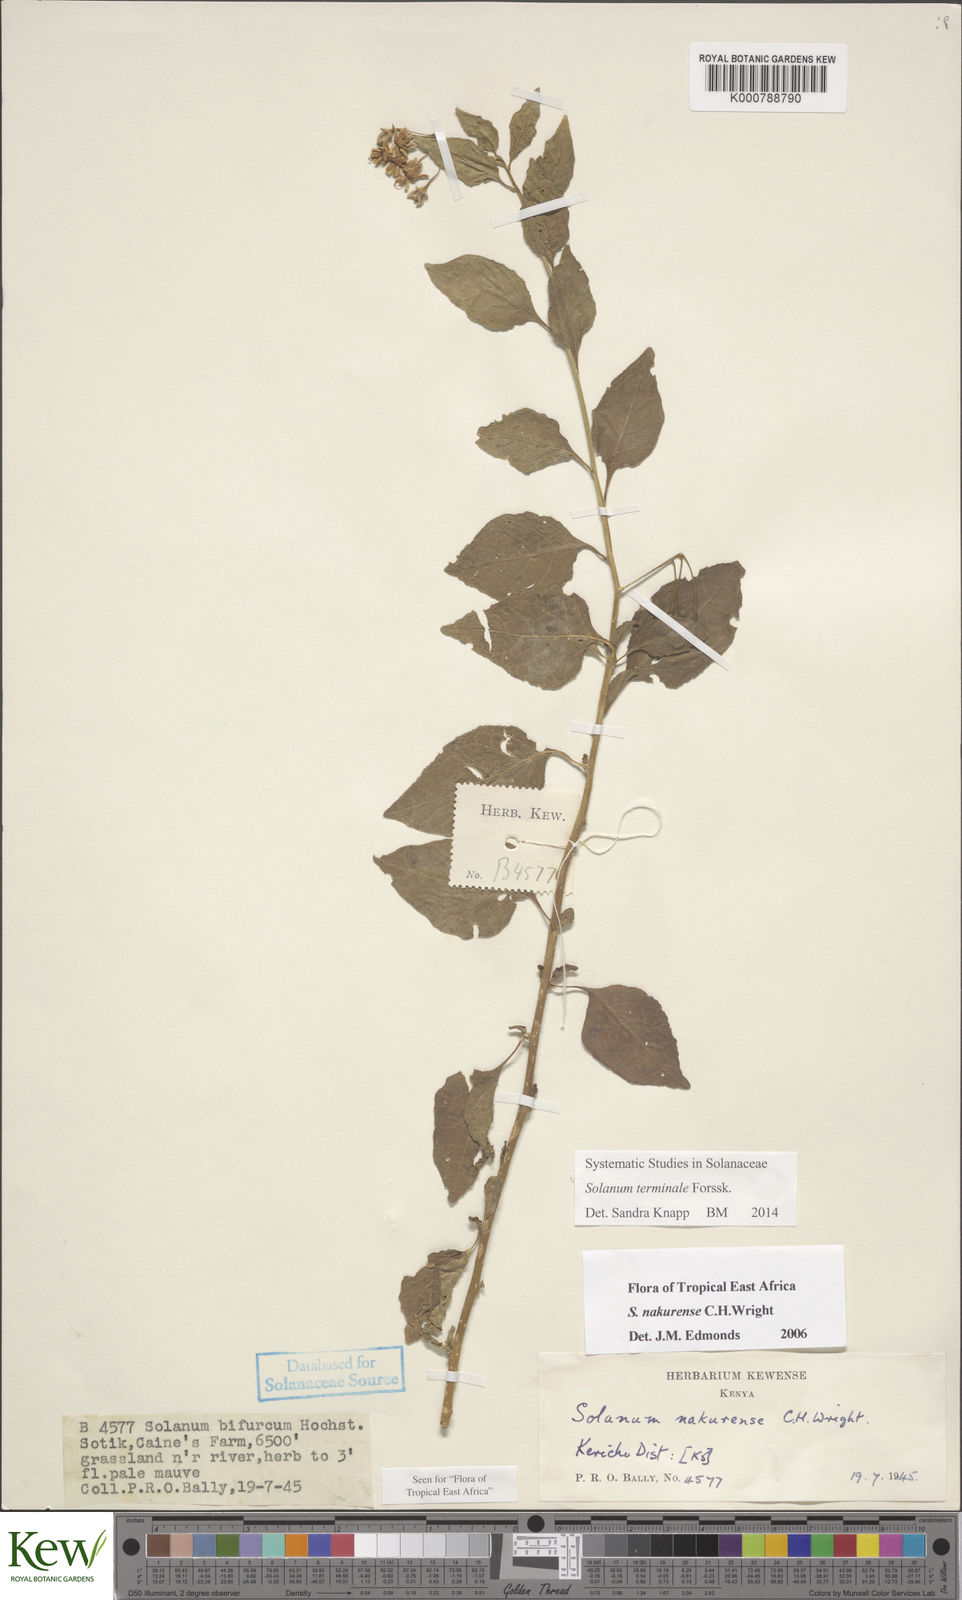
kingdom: Plantae
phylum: Tracheophyta
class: Magnoliopsida
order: Solanales
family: Solanaceae
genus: Solanum
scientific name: Solanum terminale
